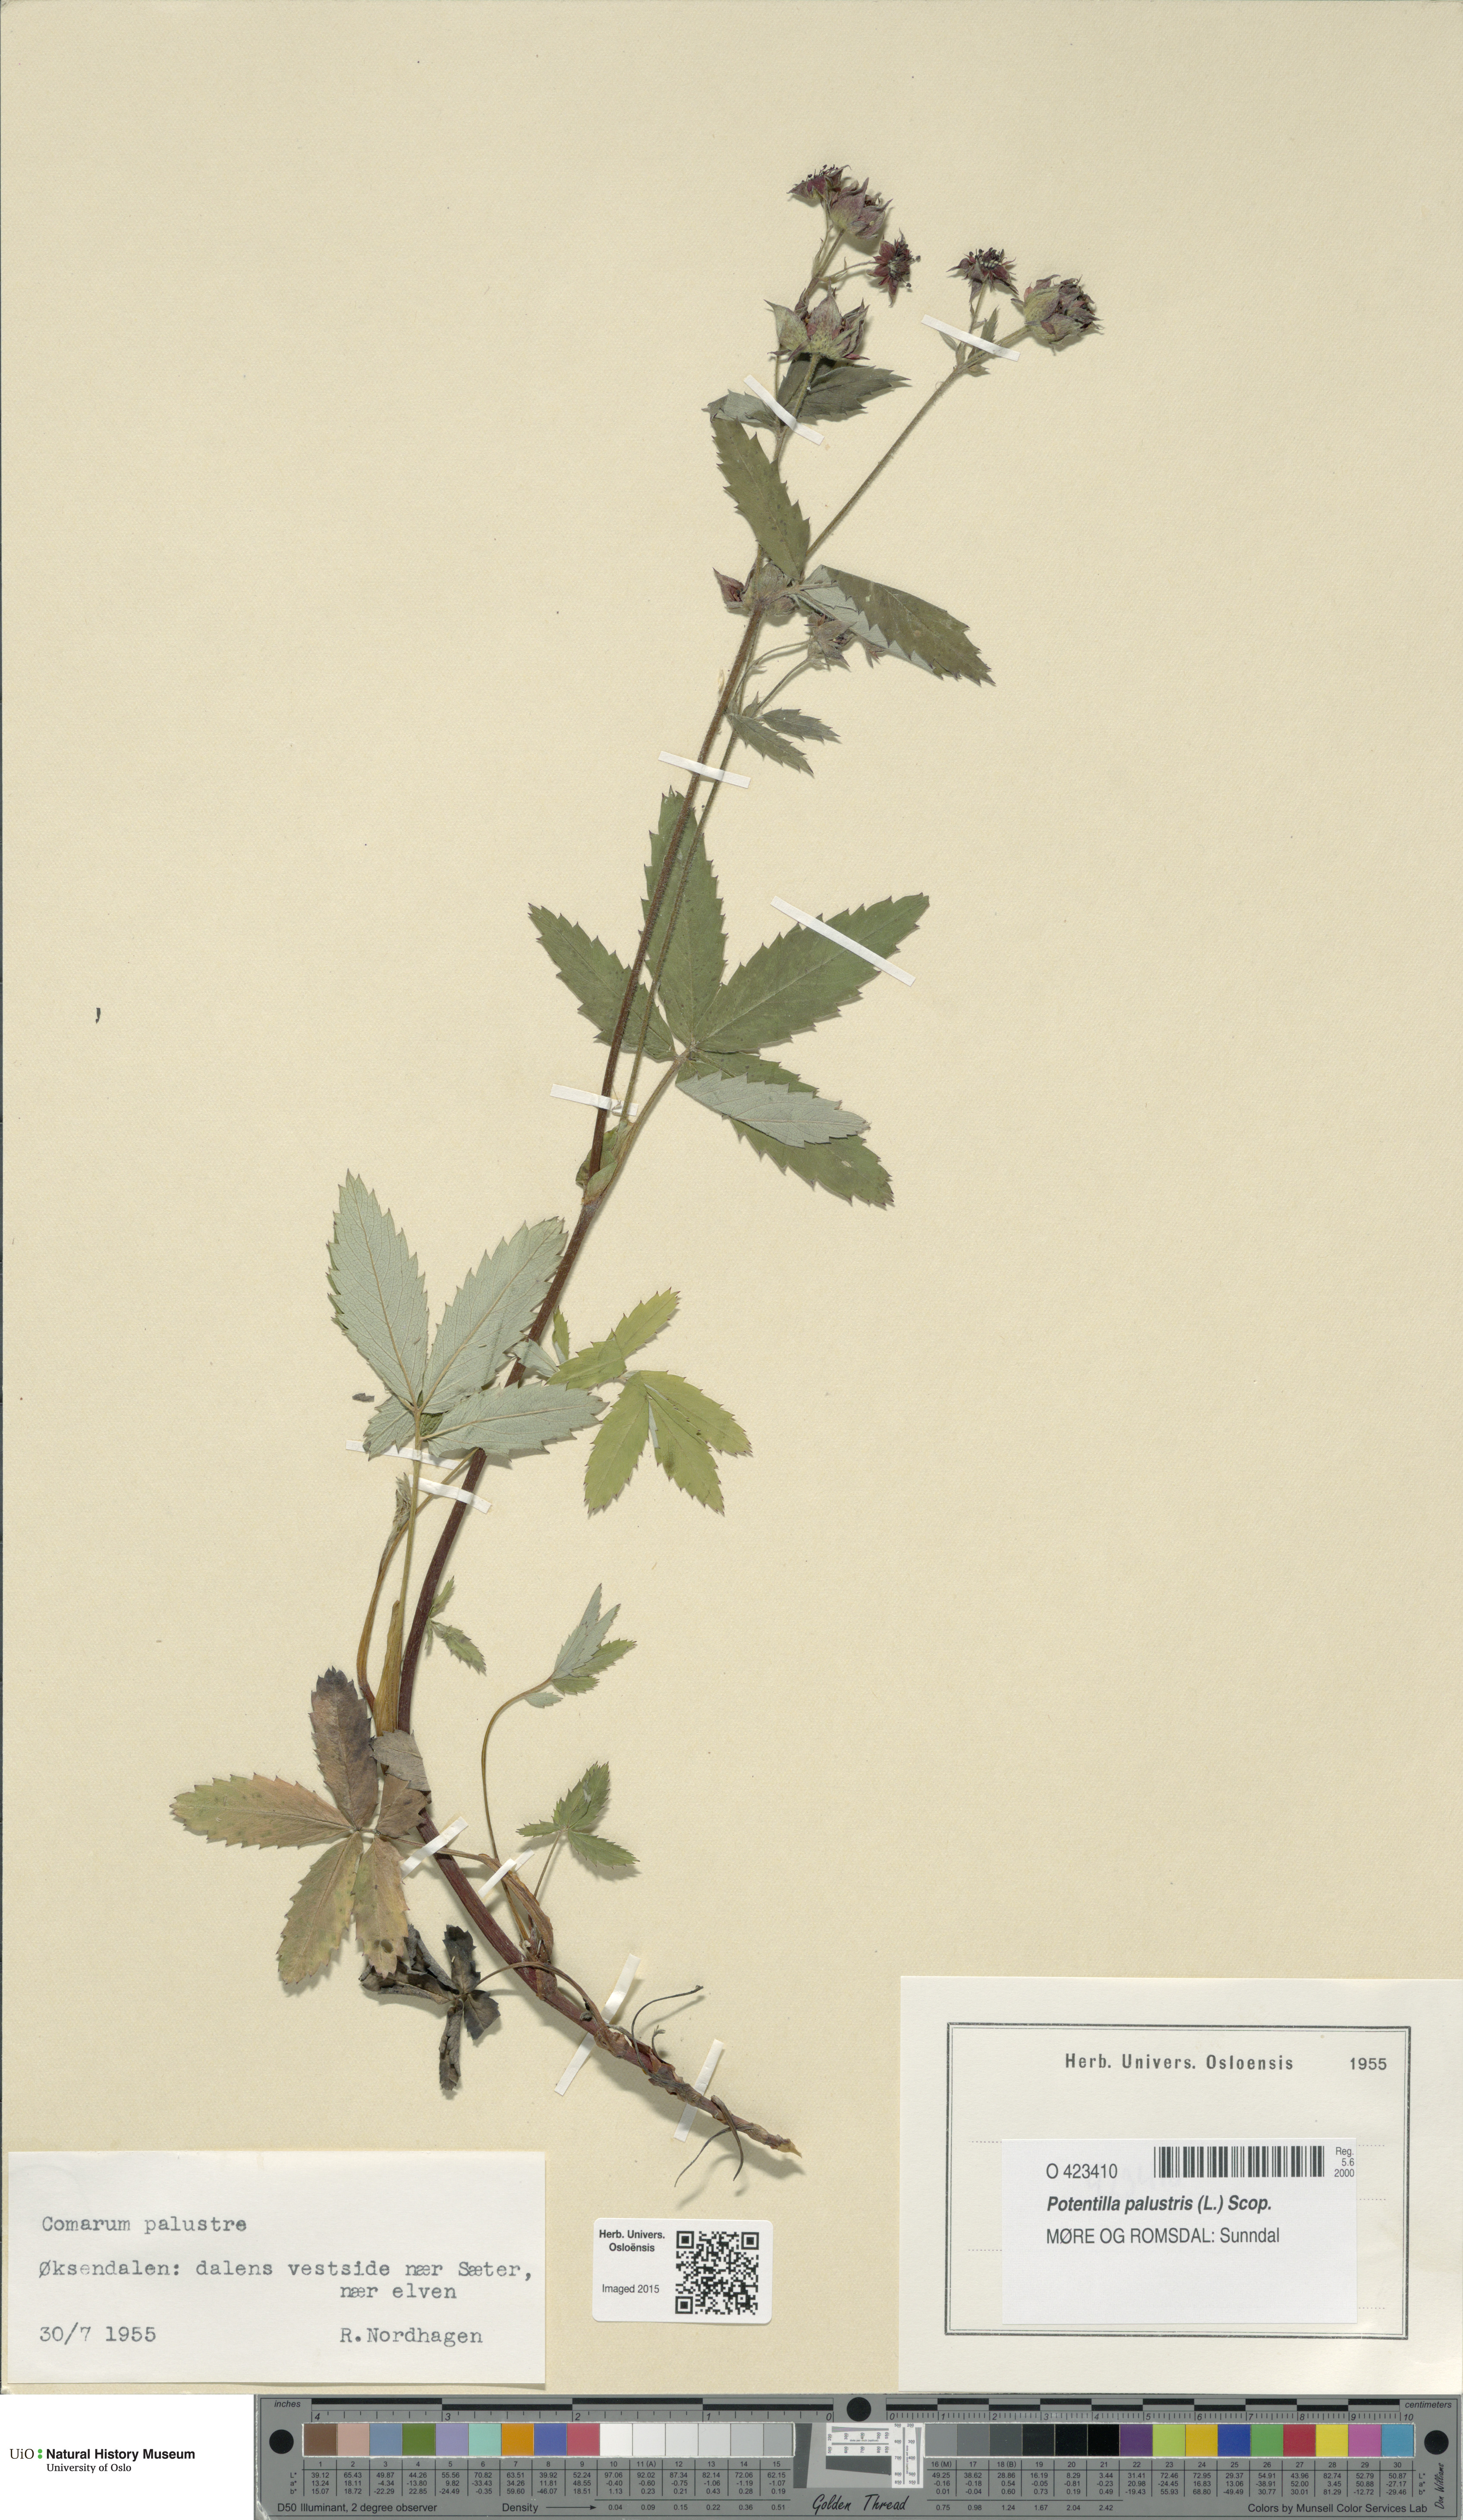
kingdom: Plantae
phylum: Tracheophyta
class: Magnoliopsida
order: Rosales
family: Rosaceae
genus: Comarum
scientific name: Comarum palustre
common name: Marsh cinquefoil
